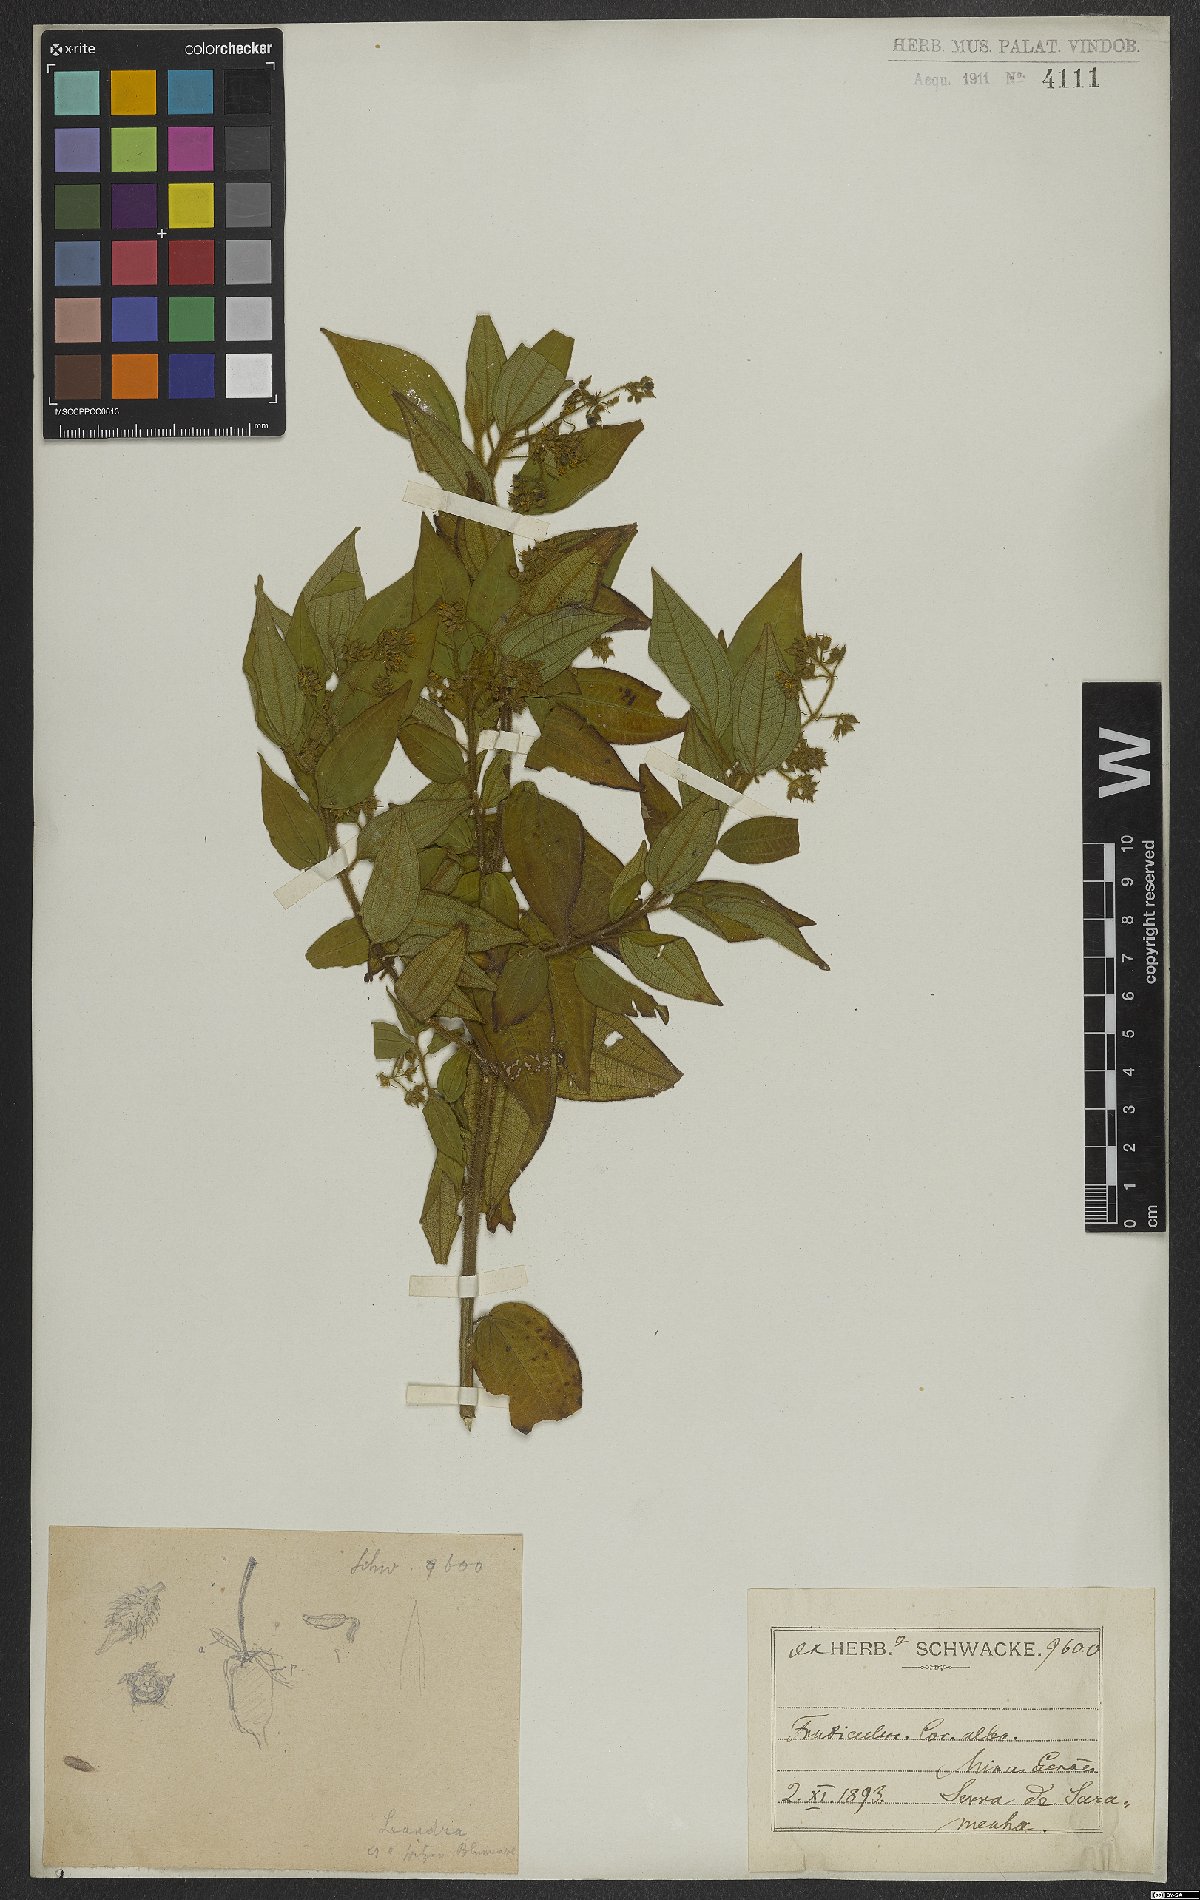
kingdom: Plantae
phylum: Tracheophyta
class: Magnoliopsida
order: Myrtales
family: Melastomataceae
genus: Miconia
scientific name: Miconia
